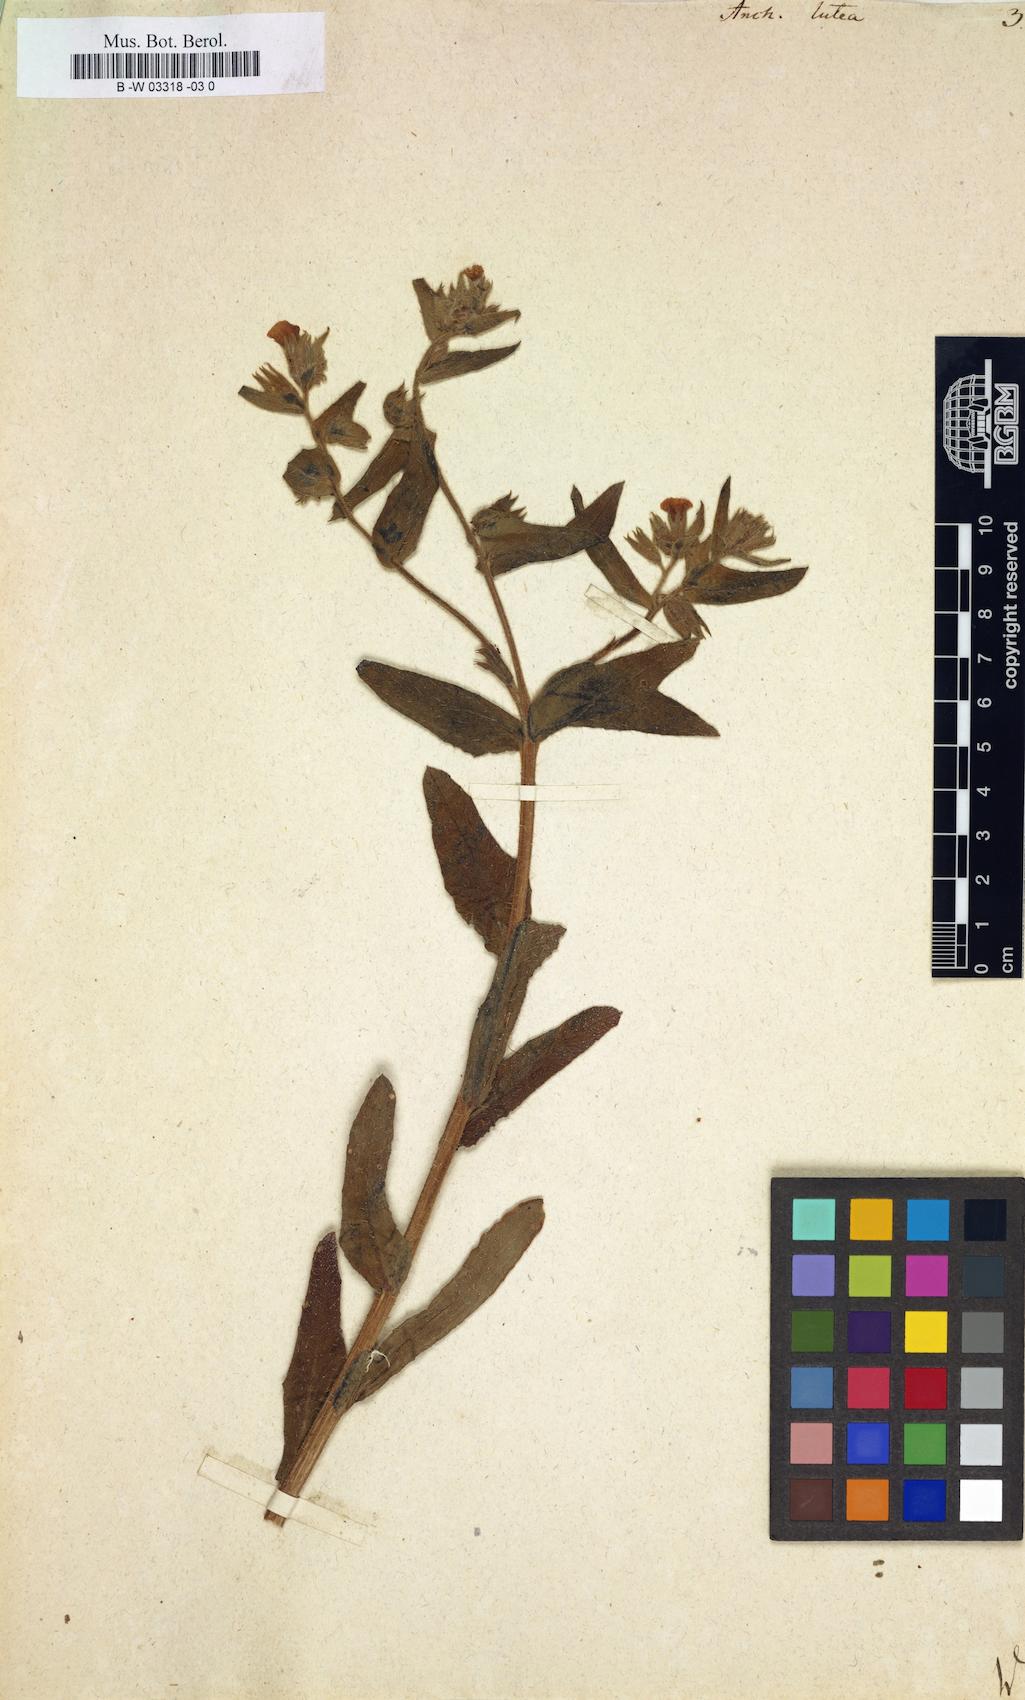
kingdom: Plantae
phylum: Tracheophyta
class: Magnoliopsida
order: Boraginales
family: Boraginaceae
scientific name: Boraginaceae
